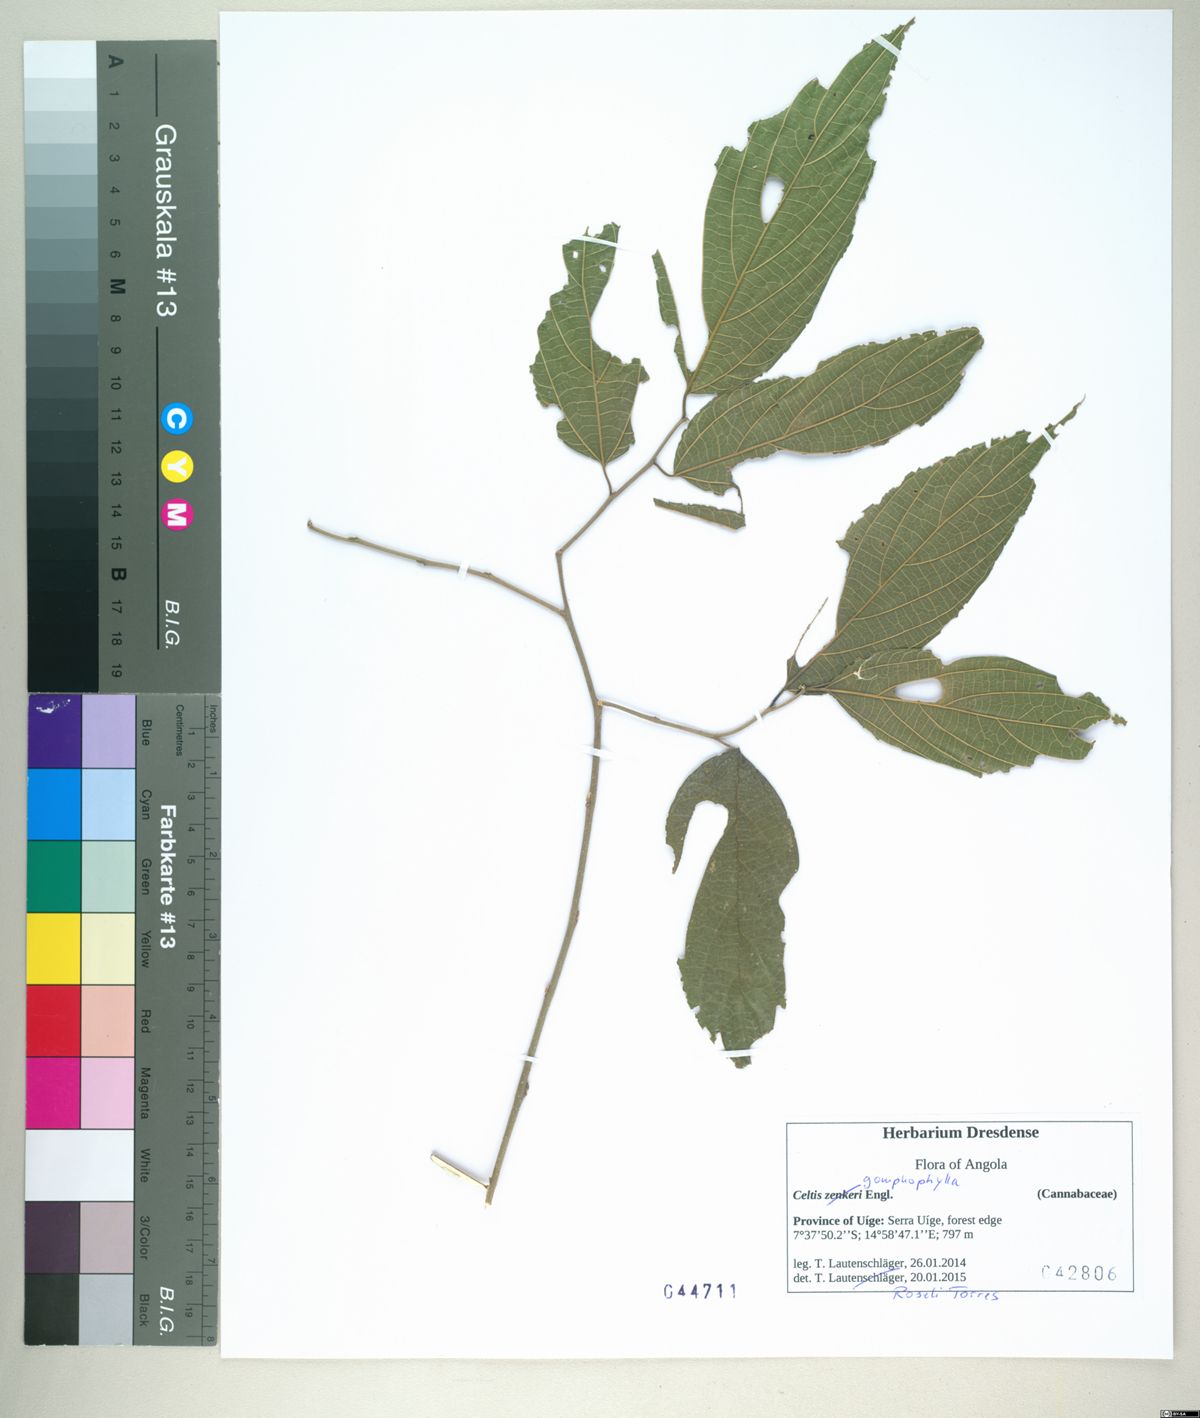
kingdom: Plantae
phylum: Tracheophyta
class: Magnoliopsida
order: Rosales
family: Cannabaceae
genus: Celtis
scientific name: Celtis gomphophylla
